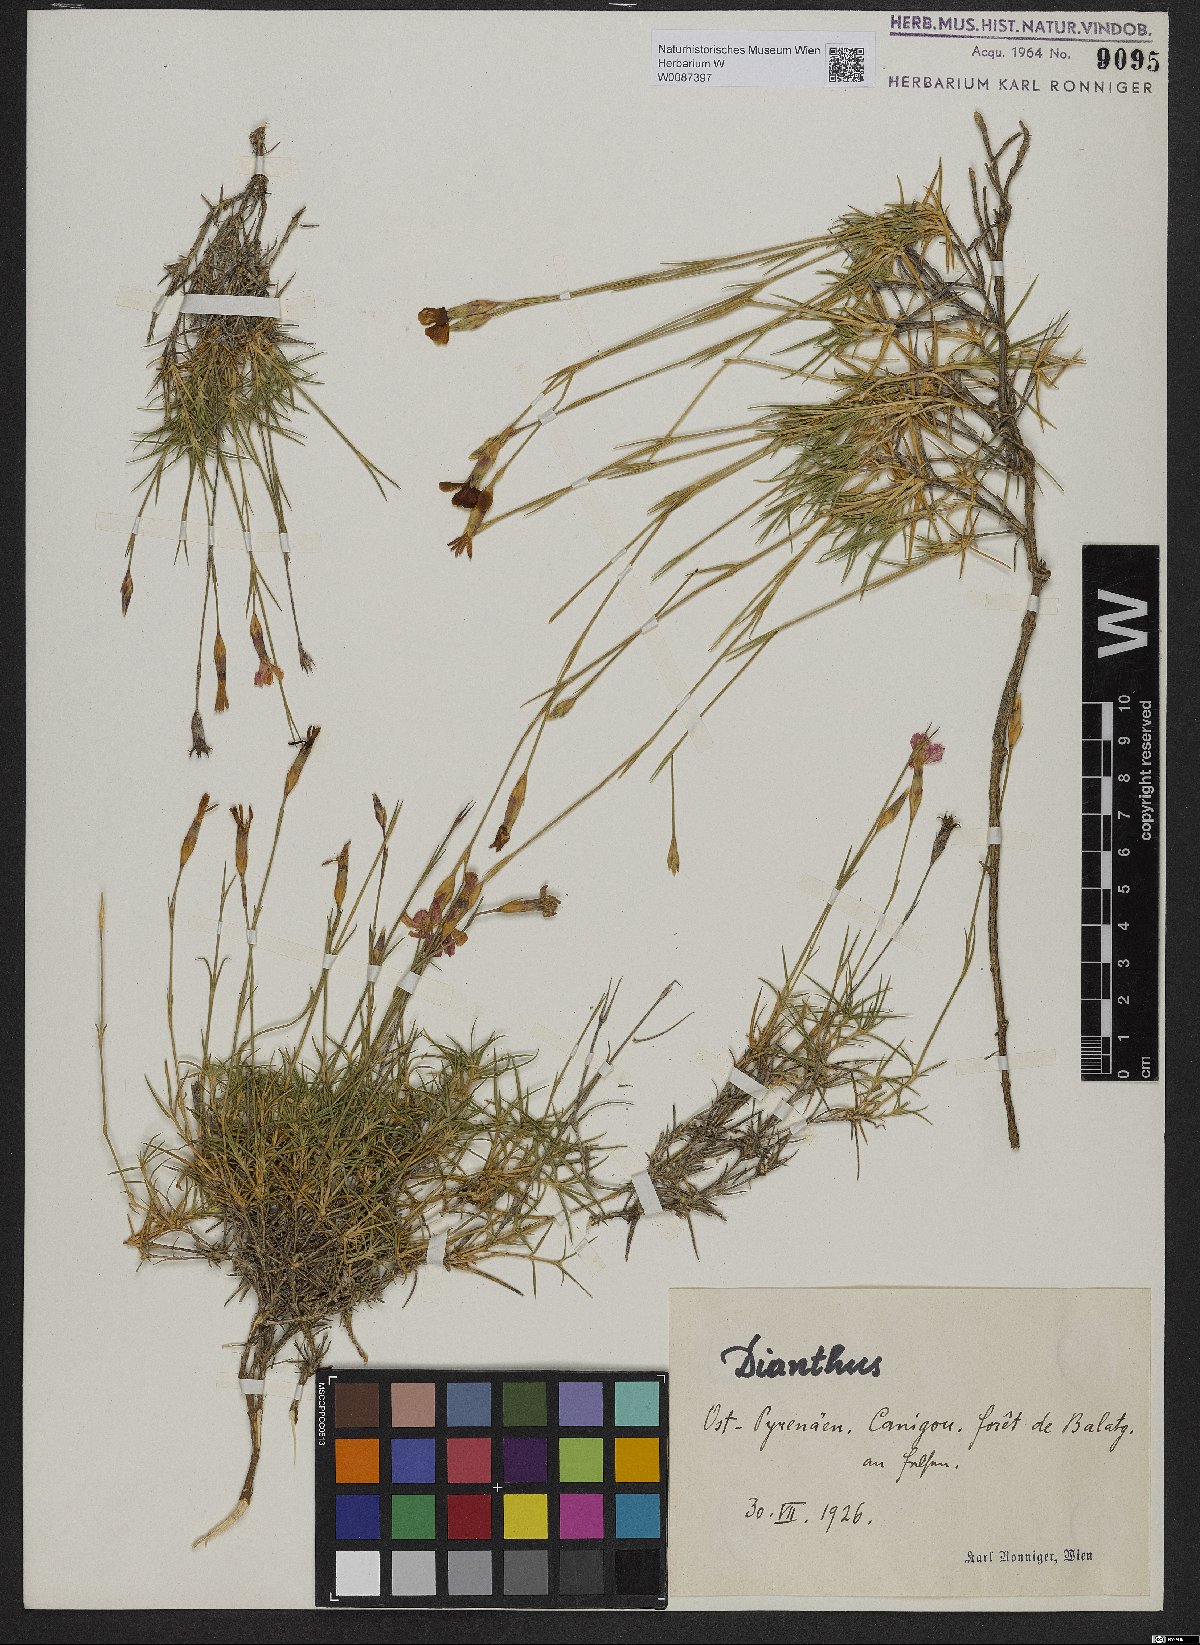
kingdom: Plantae
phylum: Tracheophyta
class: Magnoliopsida
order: Caryophyllales
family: Caryophyllaceae
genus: Dianthus
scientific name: Dianthus
